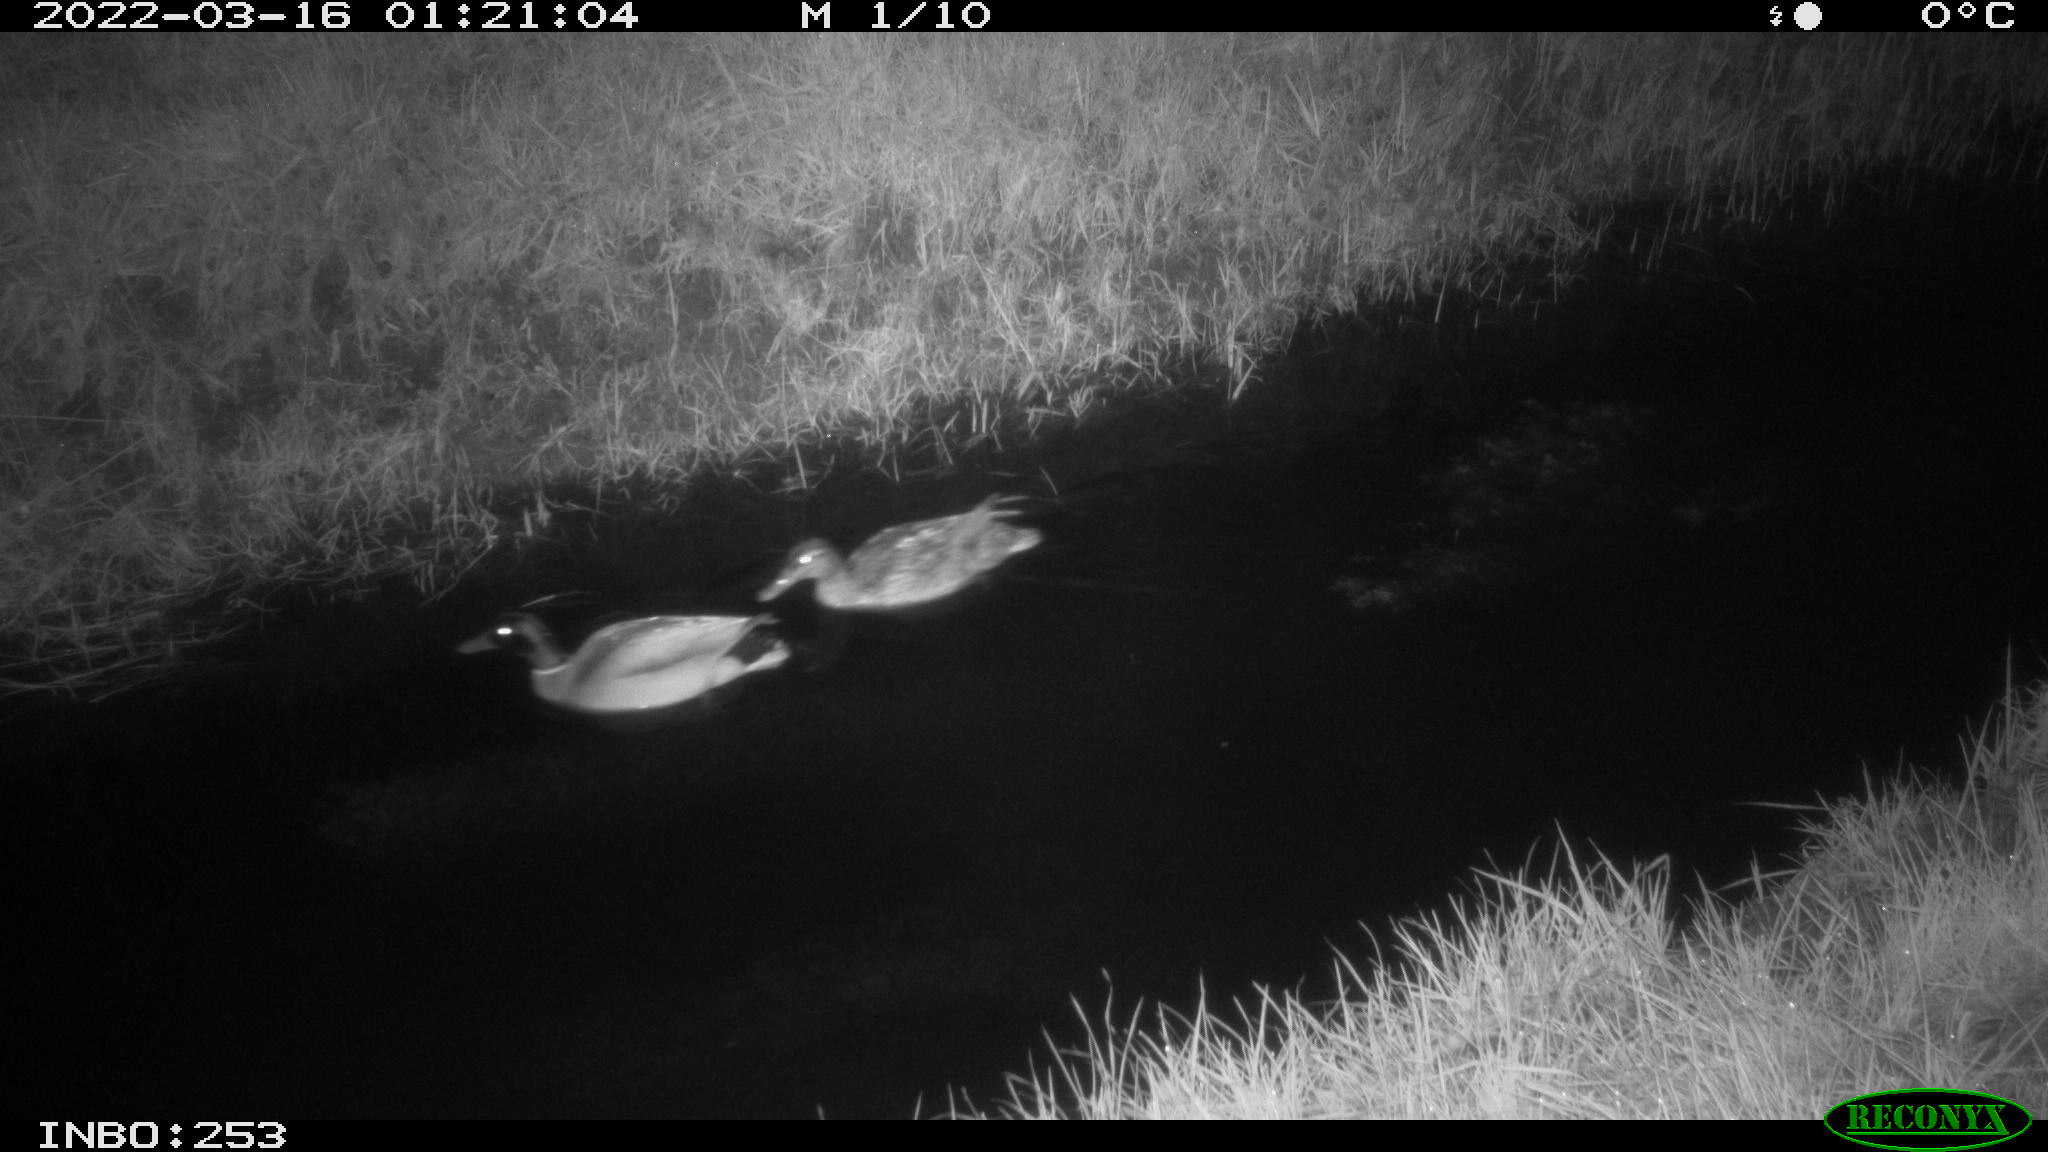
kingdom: Animalia
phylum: Chordata
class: Aves
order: Anseriformes
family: Anatidae
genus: Anas
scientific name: Anas platyrhynchos
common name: Mallard
